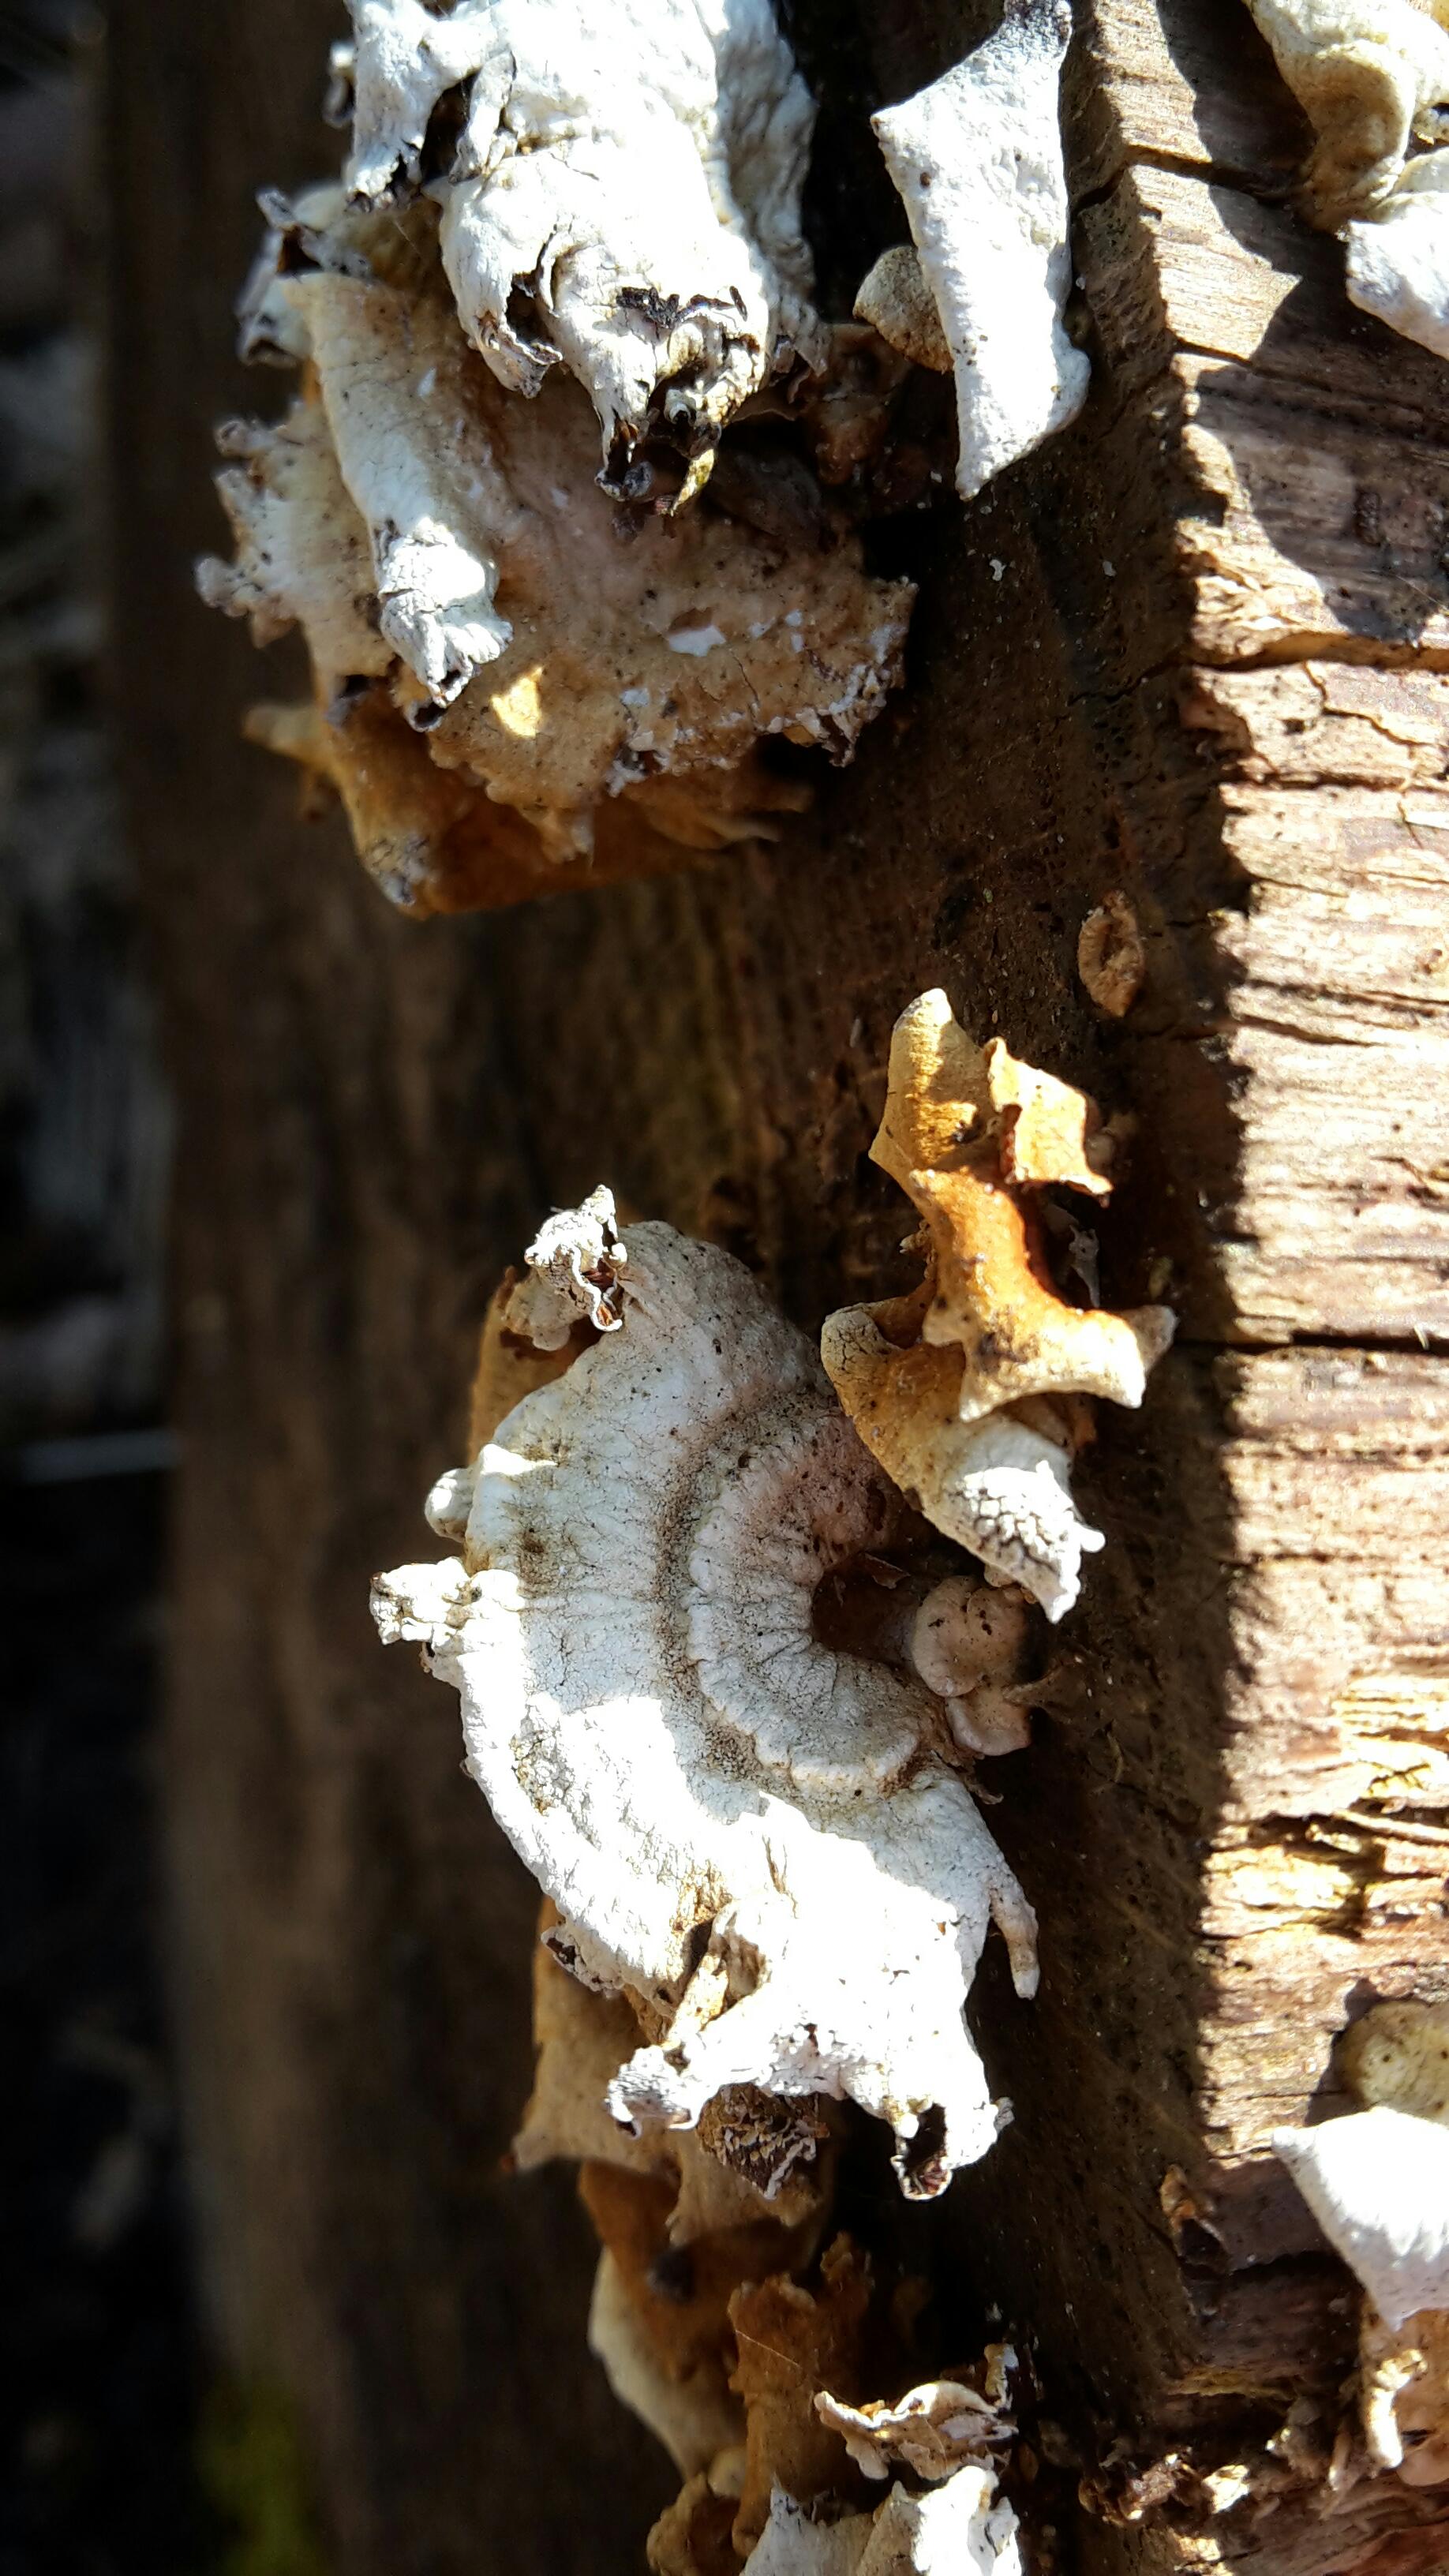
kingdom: Fungi
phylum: Basidiomycota
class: Agaricomycetes
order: Agaricales
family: Mycenaceae
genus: Panellus
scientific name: Panellus stipticus
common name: kliddet epaulethat
